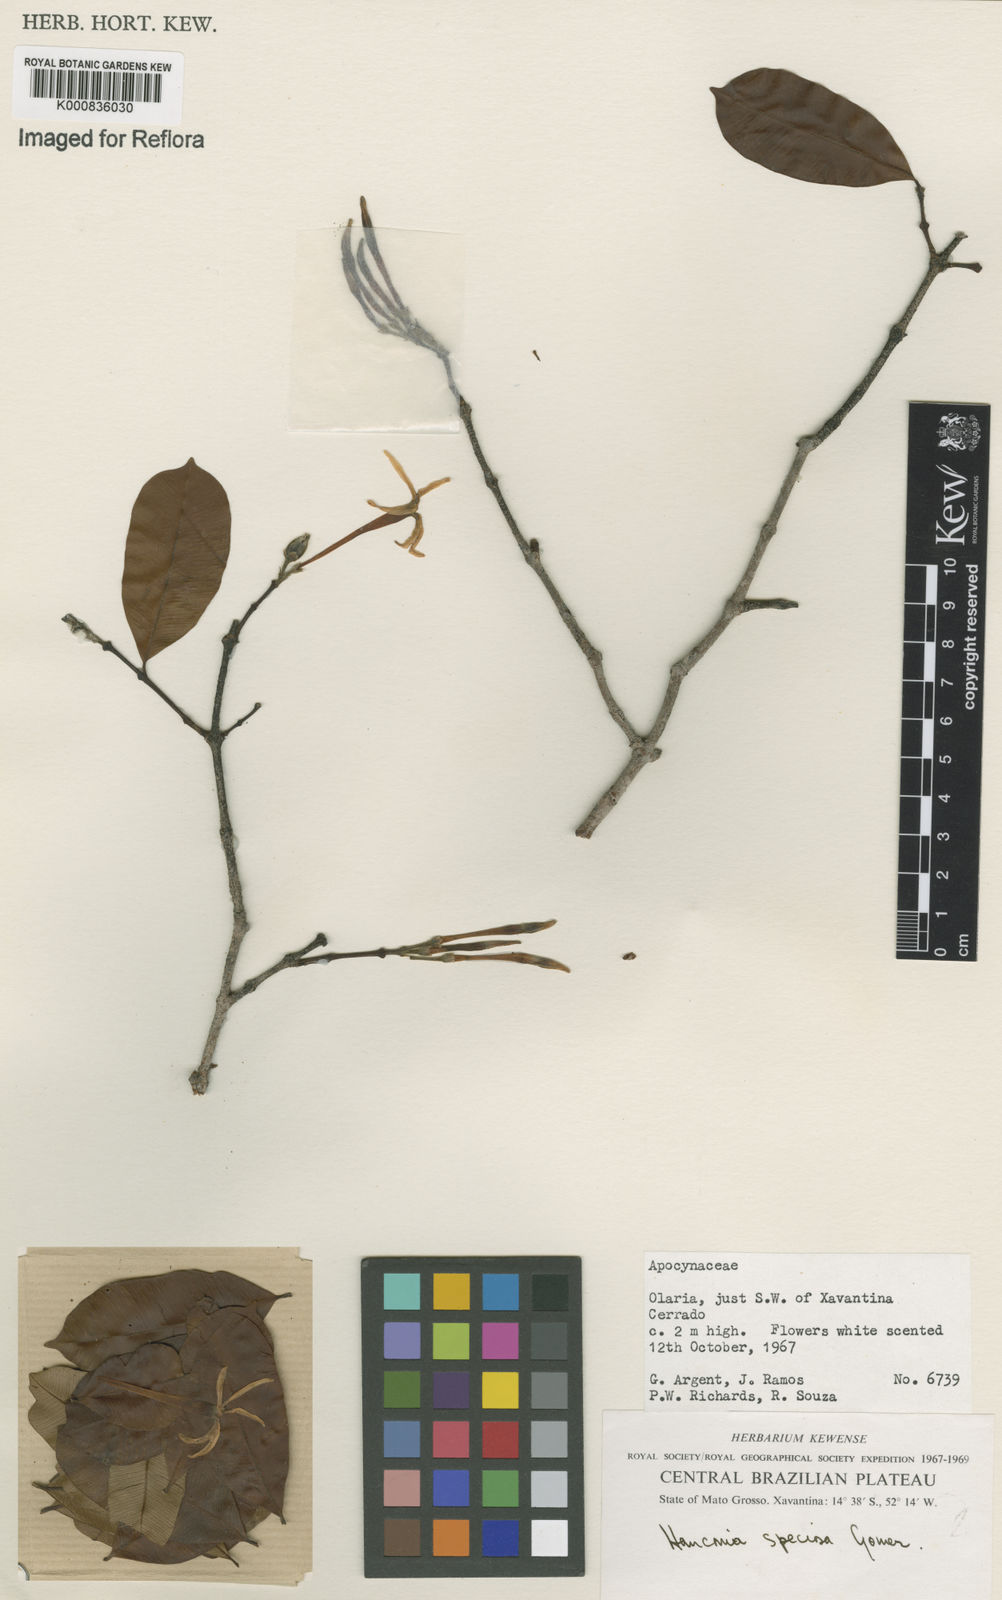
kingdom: Plantae
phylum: Tracheophyta
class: Magnoliopsida
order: Gentianales
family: Apocynaceae
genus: Hancornia
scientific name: Hancornia speciosa
